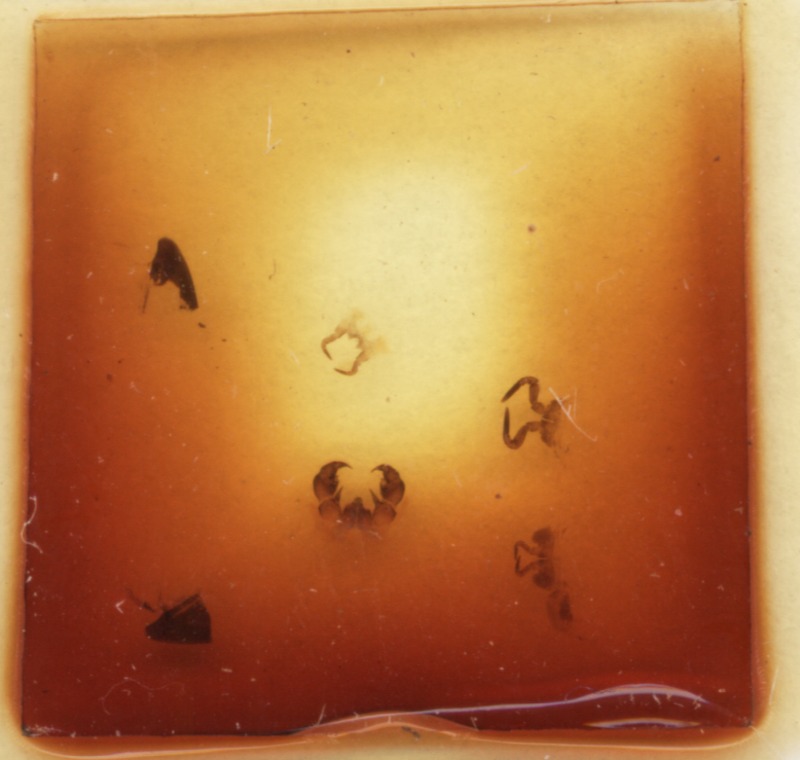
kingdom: Animalia
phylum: Arthropoda
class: Diplopoda
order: Glomerida
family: Glomeridae
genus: Glomeris
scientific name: Glomeris pustulata
